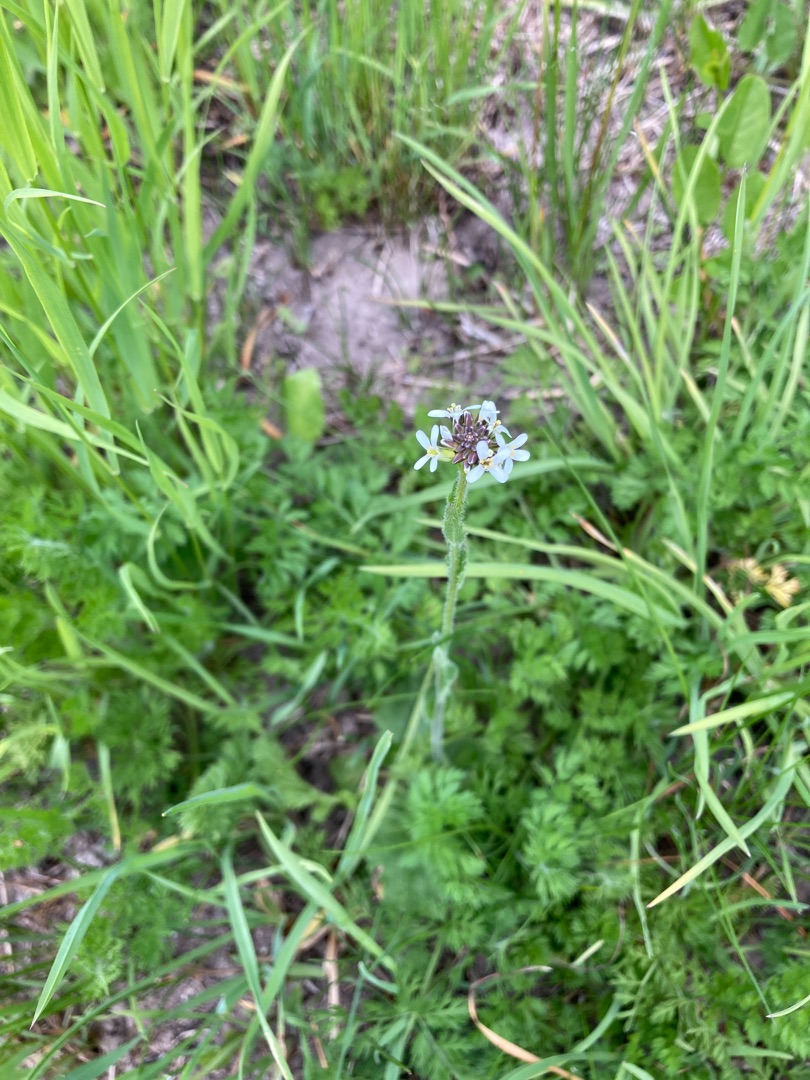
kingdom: Plantae
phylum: Tracheophyta
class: Magnoliopsida
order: Brassicales
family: Brassicaceae
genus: Arabis
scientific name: Arabis hirsuta
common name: Stivhåret kalkkarse
